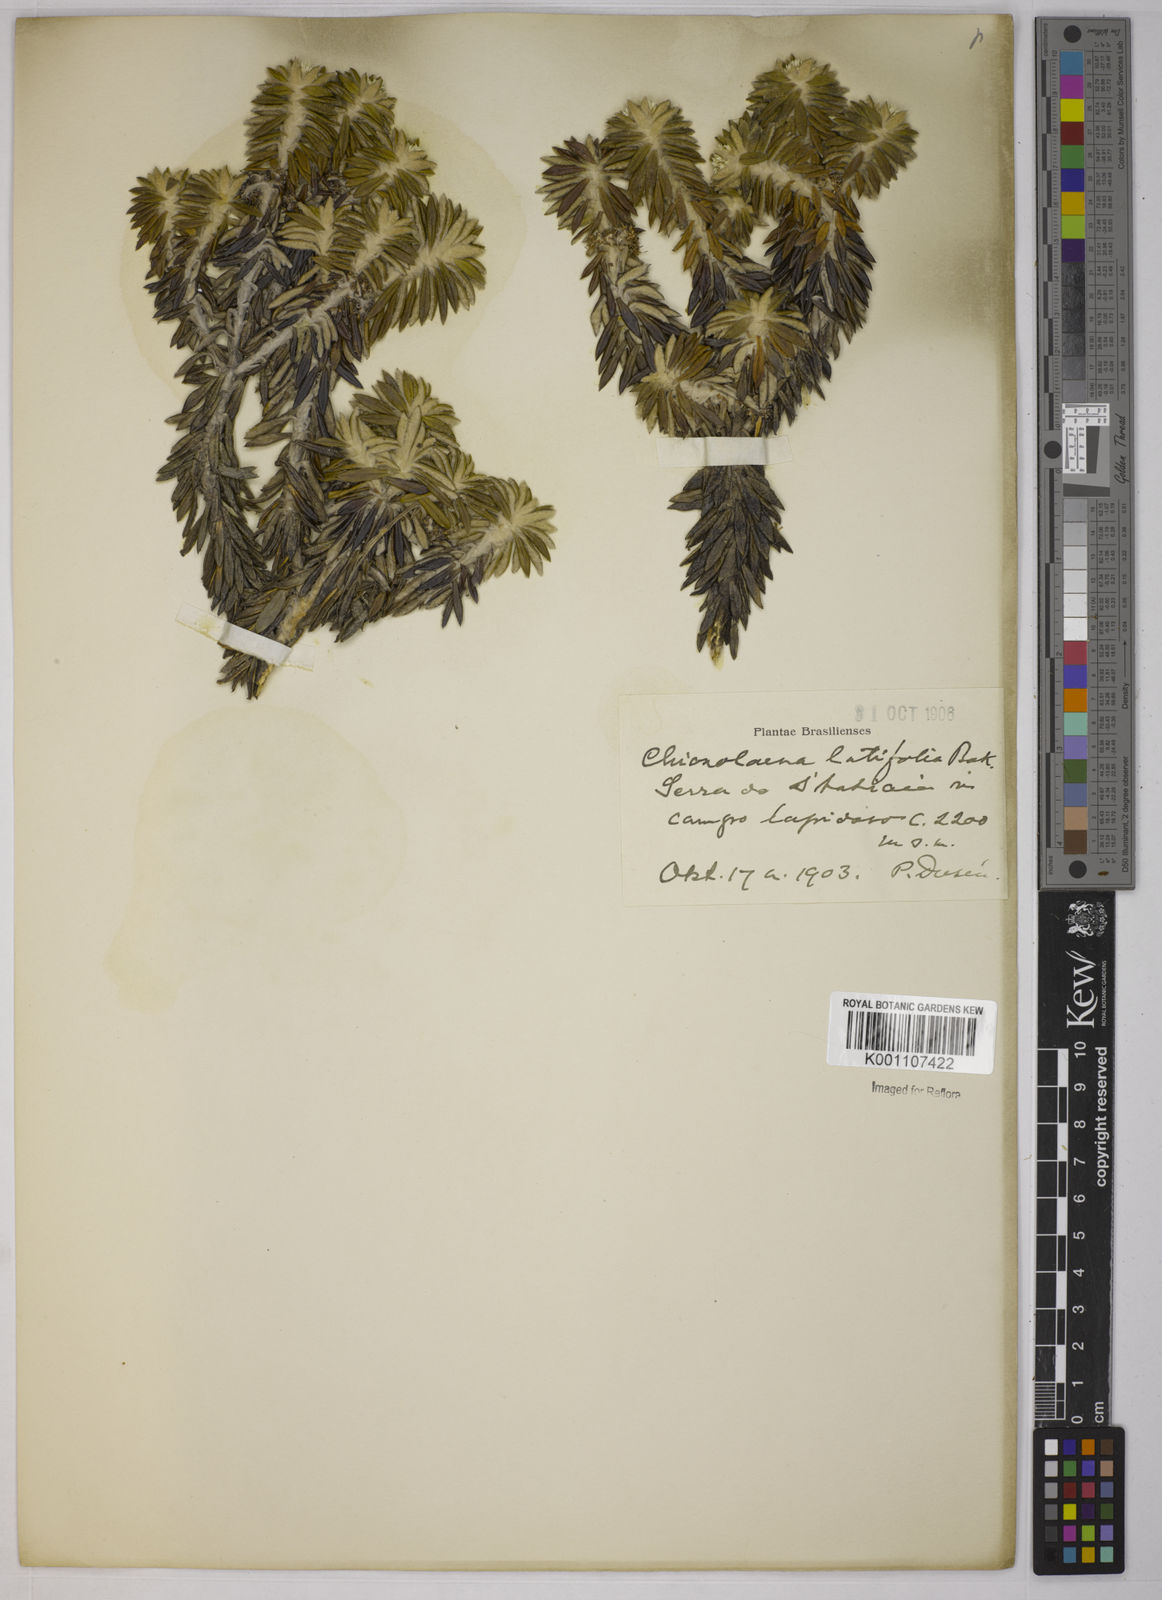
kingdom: Plantae
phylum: Tracheophyta
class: Magnoliopsida
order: Asterales
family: Asteraceae
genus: Chionolaena
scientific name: Chionolaena latifolia
